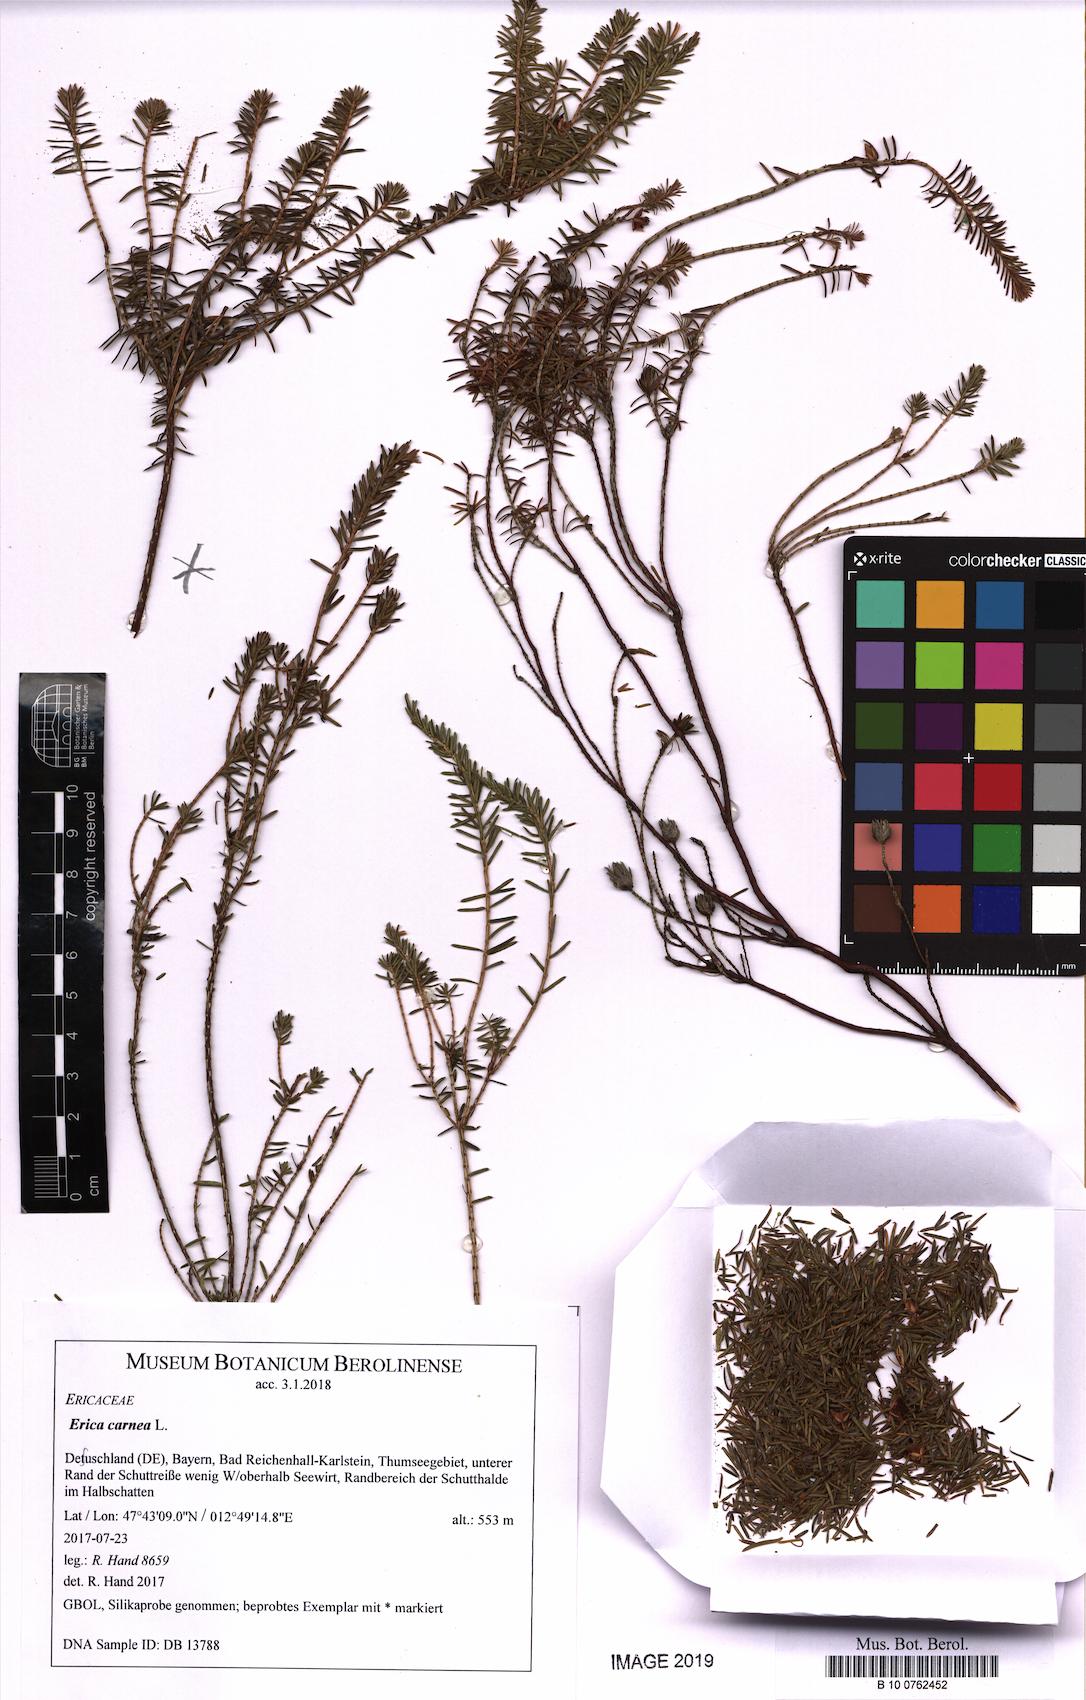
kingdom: Plantae
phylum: Tracheophyta
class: Magnoliopsida
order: Ericales
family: Ericaceae
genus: Erica
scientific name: Erica carnea
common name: Winter heath
